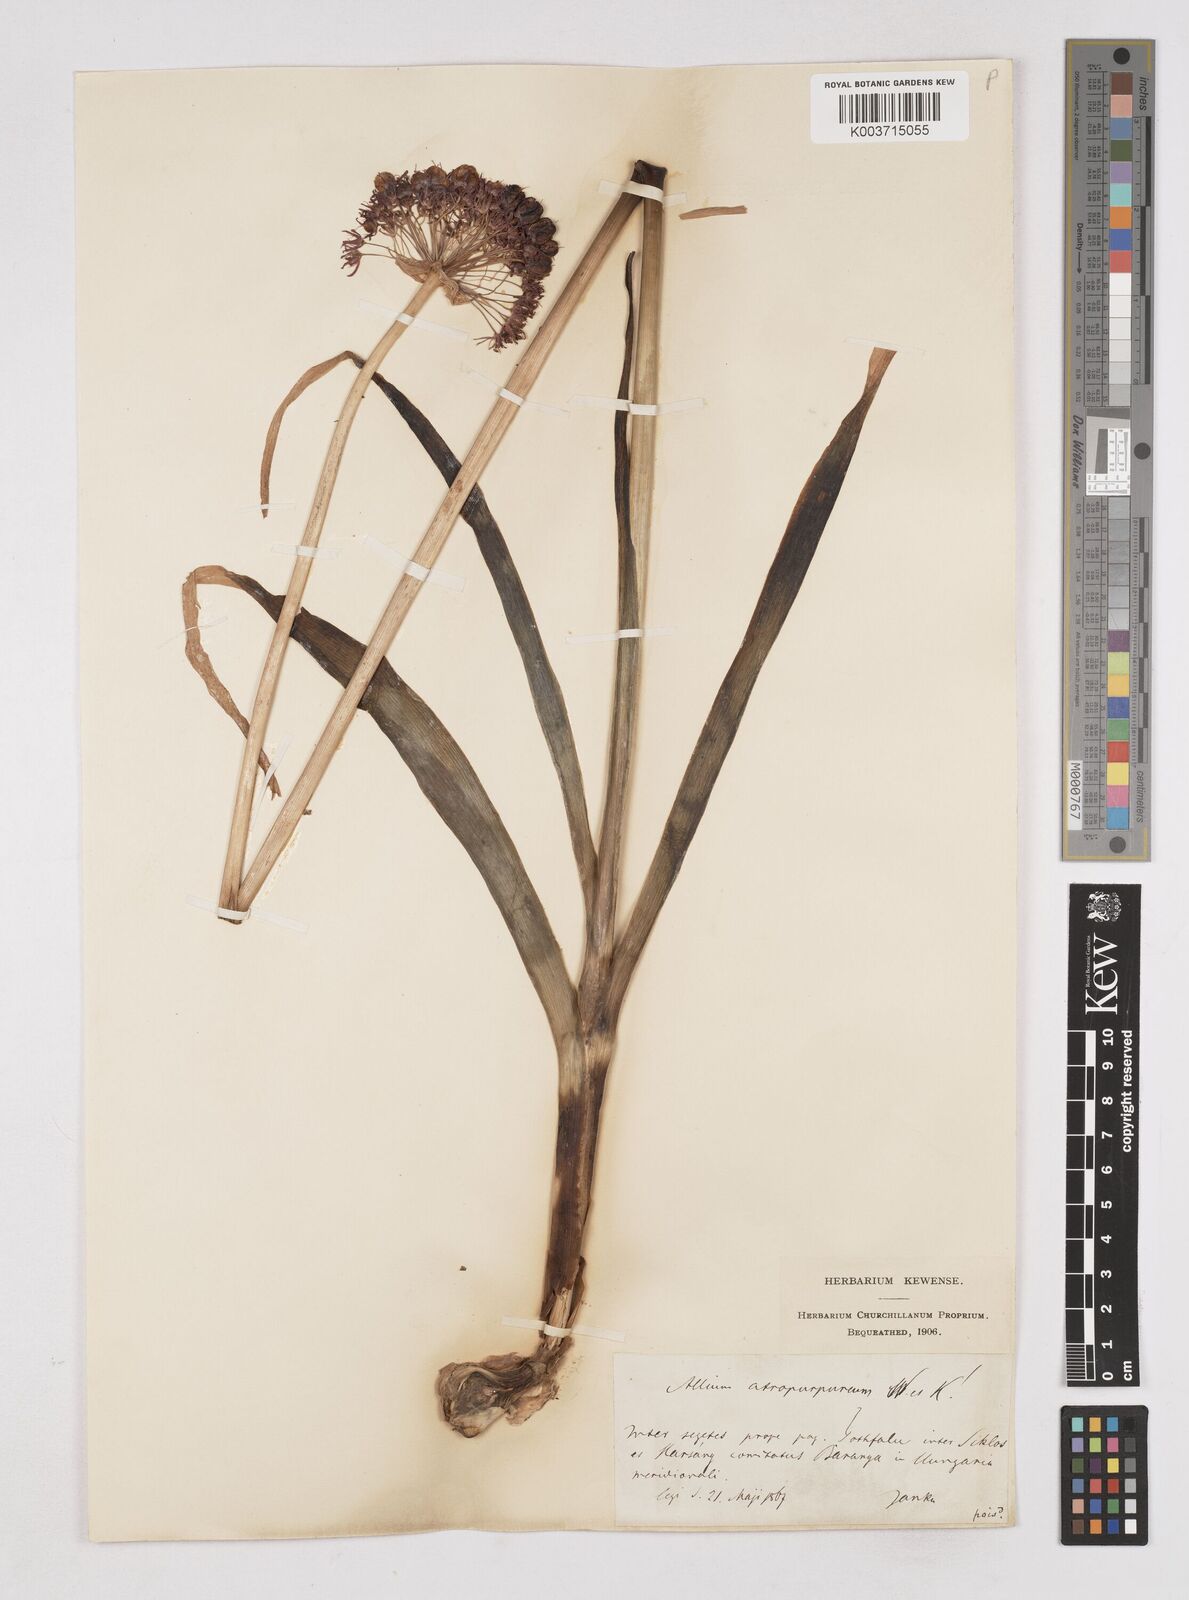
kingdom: Plantae
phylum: Tracheophyta
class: Liliopsida
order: Asparagales
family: Amaryllidaceae
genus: Allium
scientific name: Allium atropurpureum
